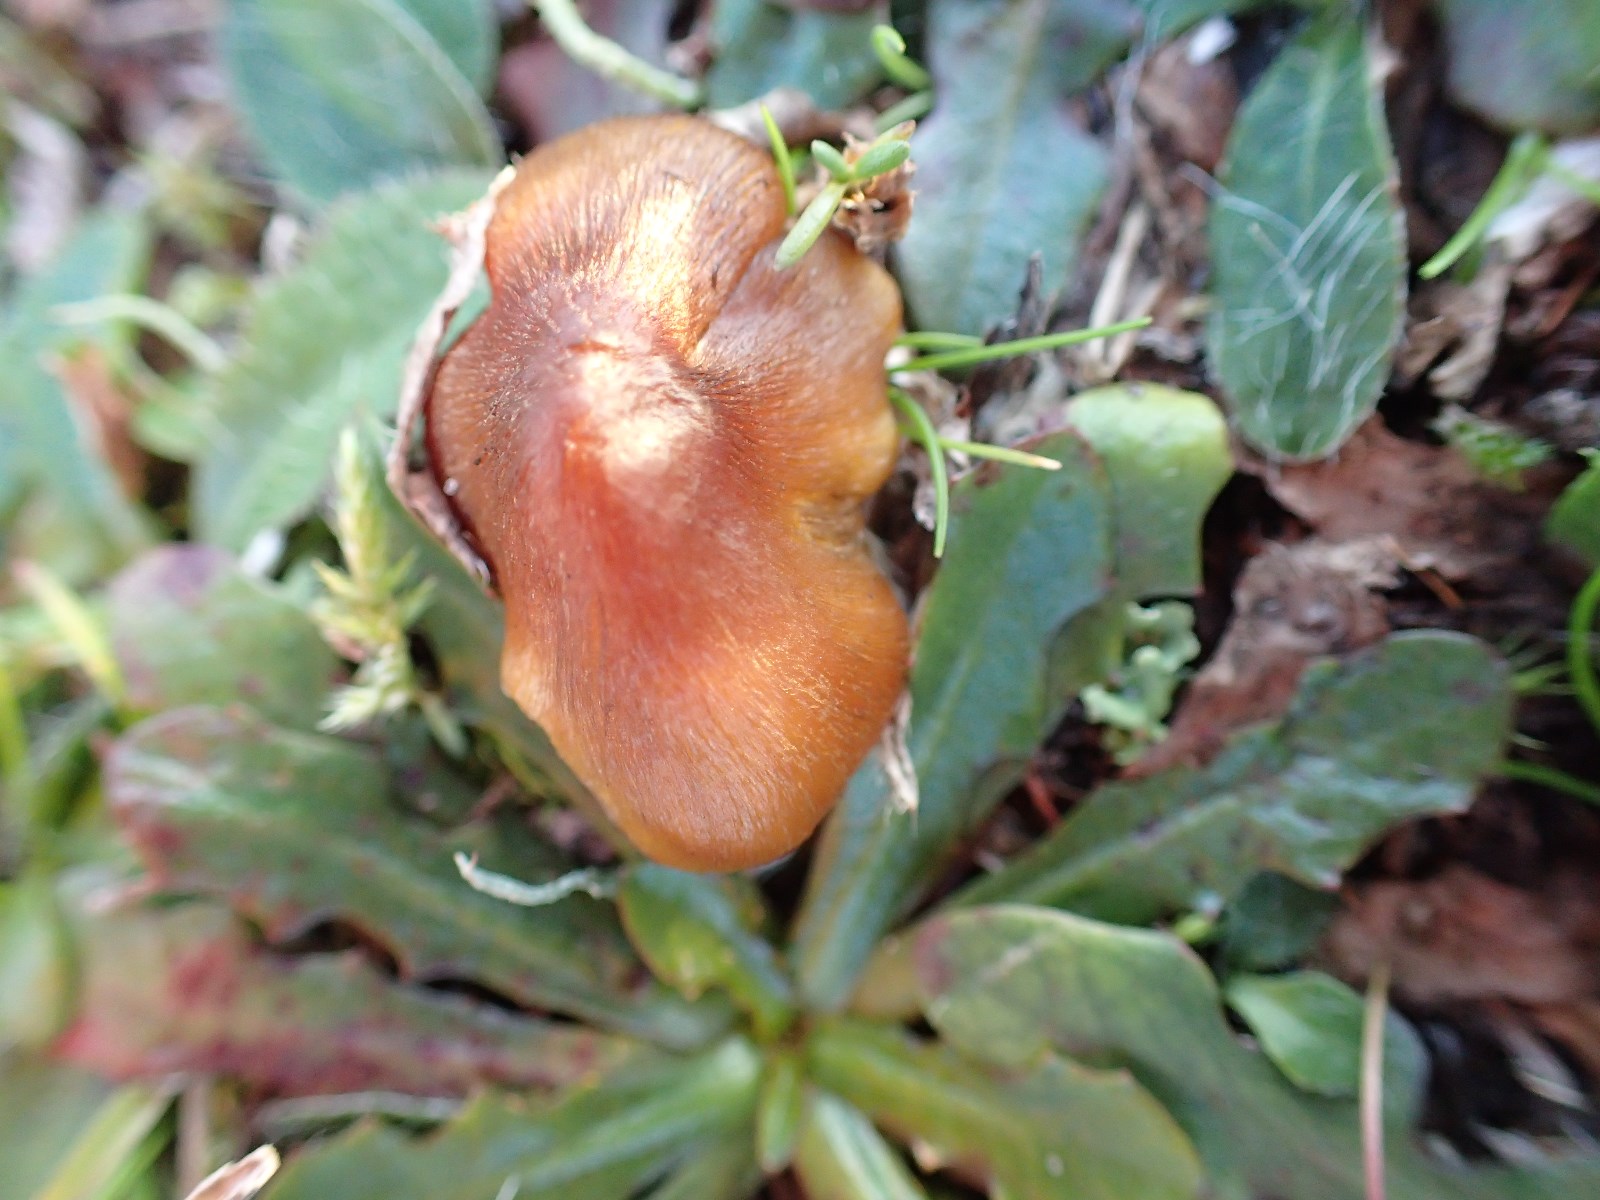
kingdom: Fungi
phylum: Basidiomycota
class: Agaricomycetes
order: Agaricales
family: Hygrophoraceae
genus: Hygrocybe
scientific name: Hygrocybe conica
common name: kegle-vokshat
